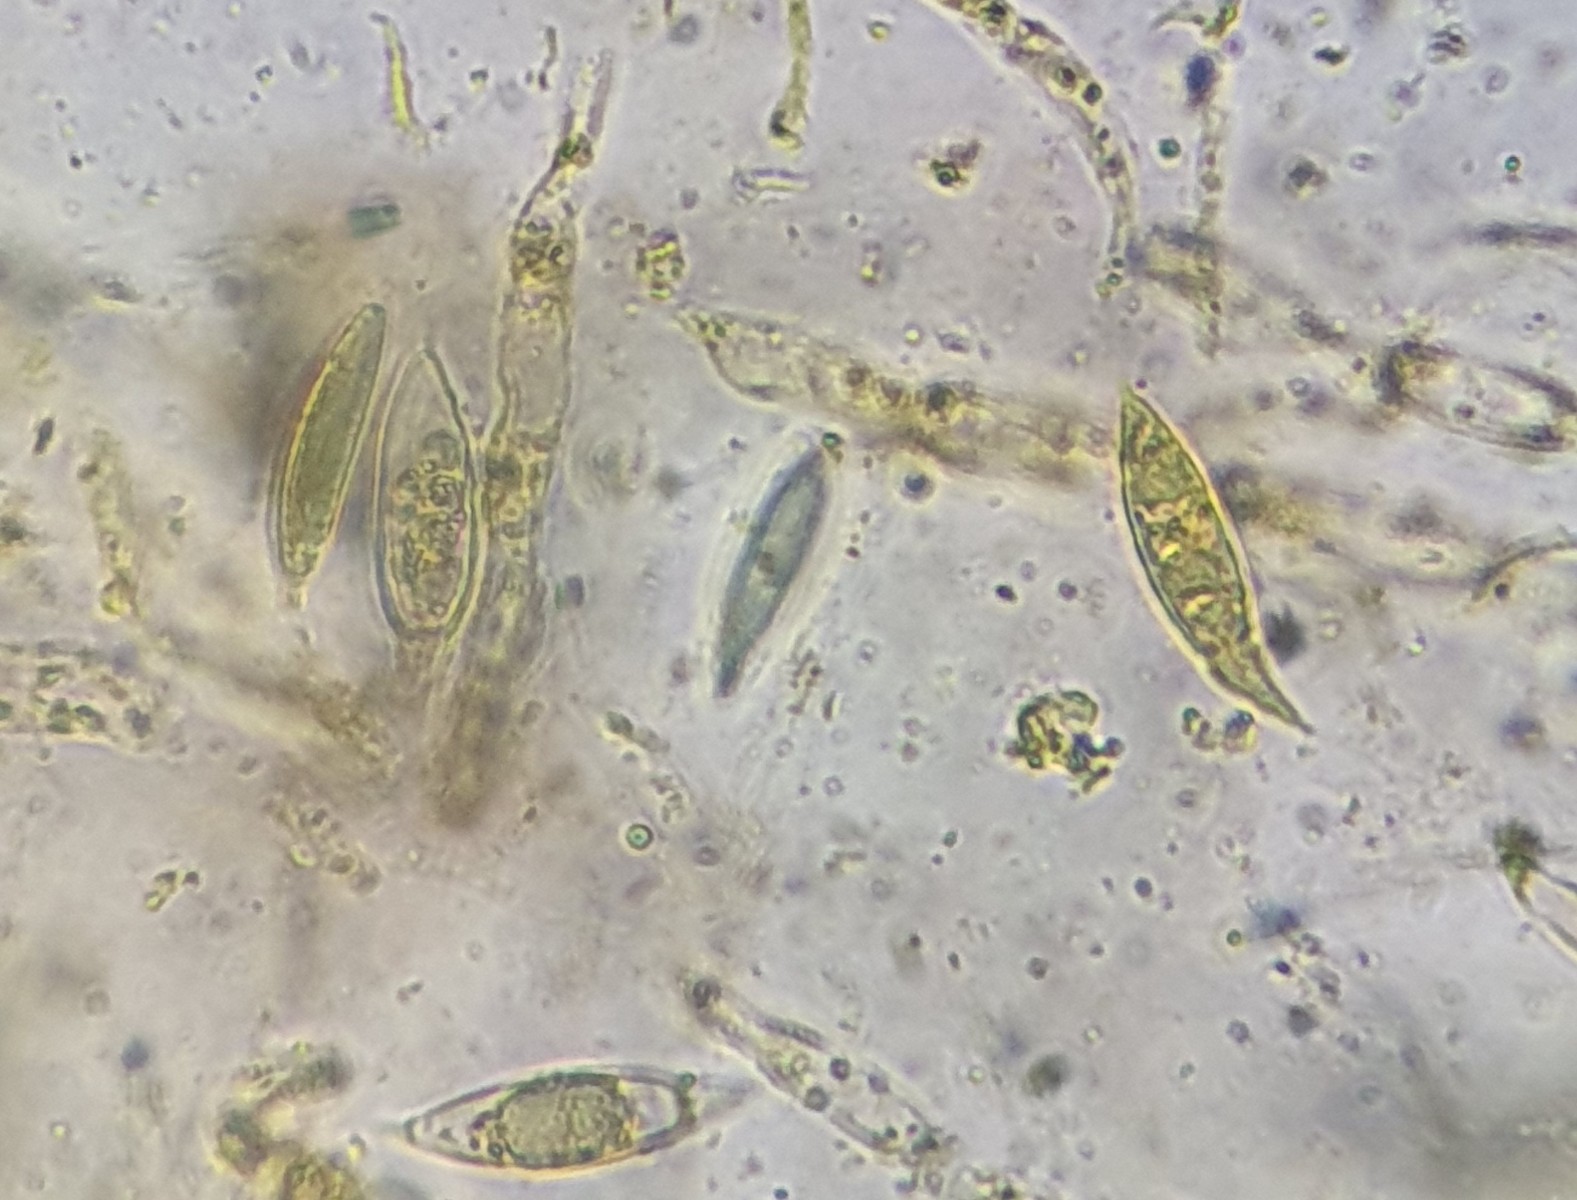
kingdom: Fungi
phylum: Ascomycota
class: Sordariomycetes
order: Xylariales
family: Xylariaceae
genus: Alloanthostomella
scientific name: Alloanthostomella rubicola
